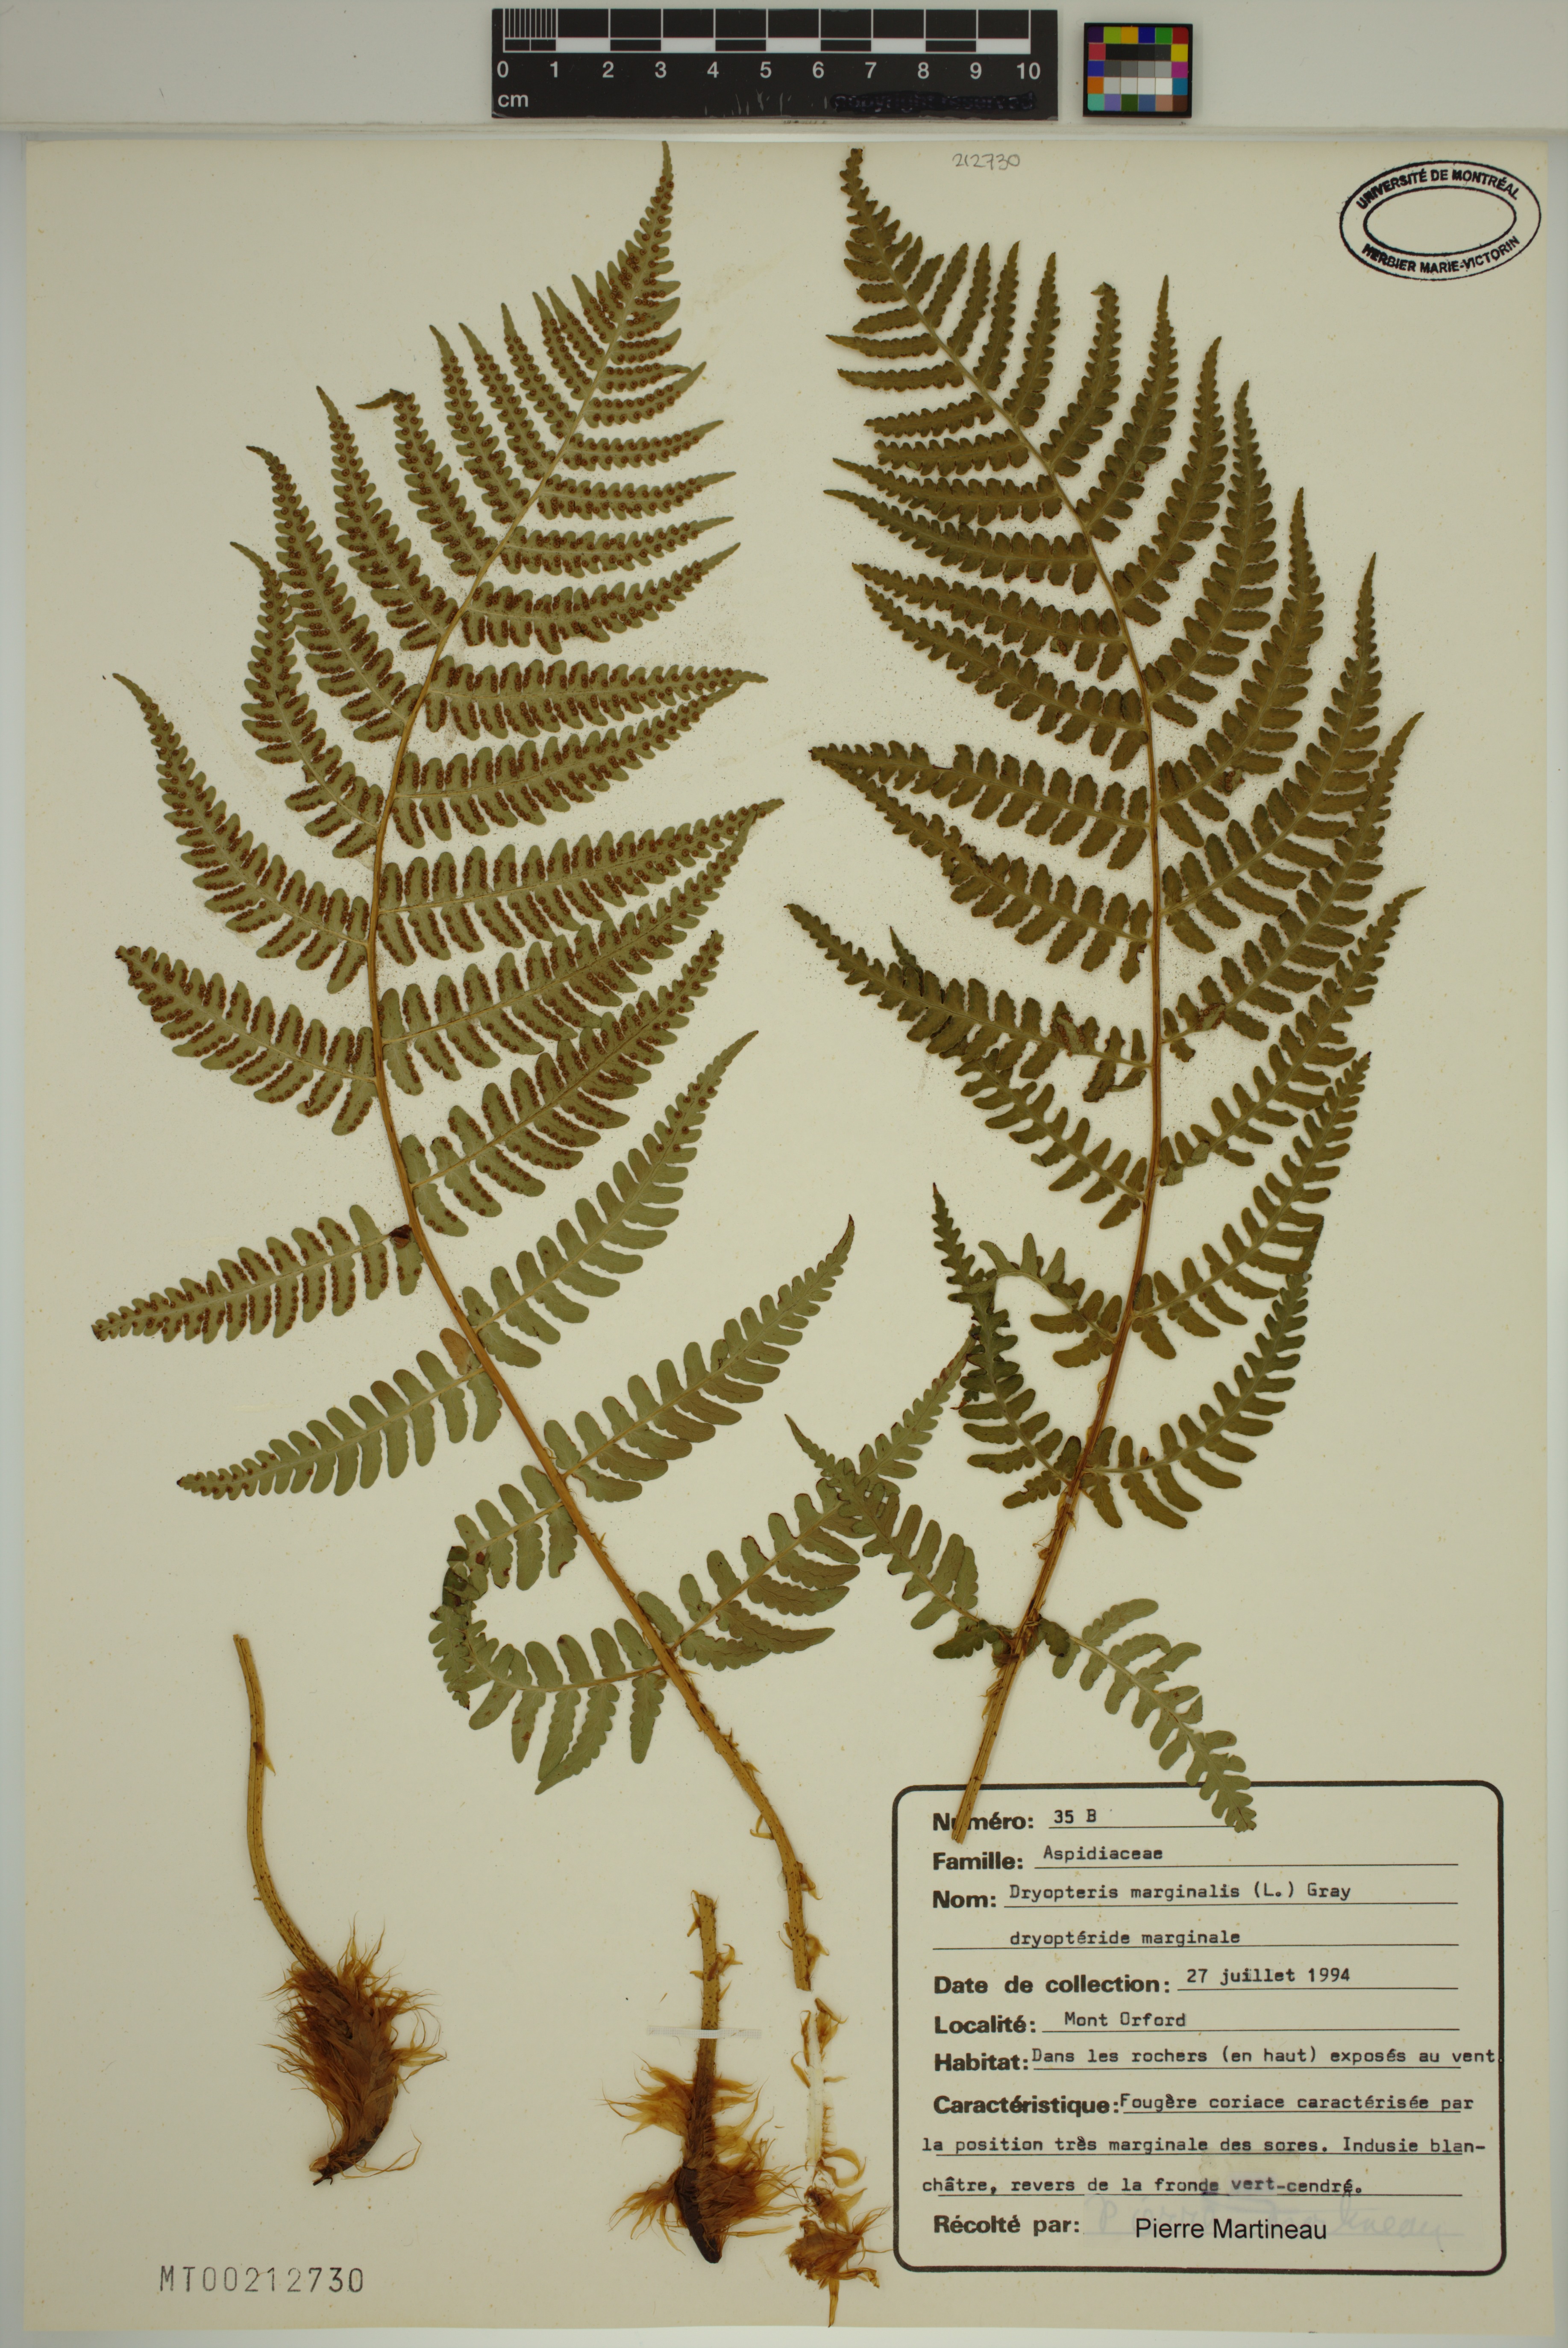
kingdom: Plantae
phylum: Tracheophyta
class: Polypodiopsida
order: Polypodiales
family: Dryopteridaceae
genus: Dryopteris
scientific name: Dryopteris marginalis
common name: Marginal wood fern
